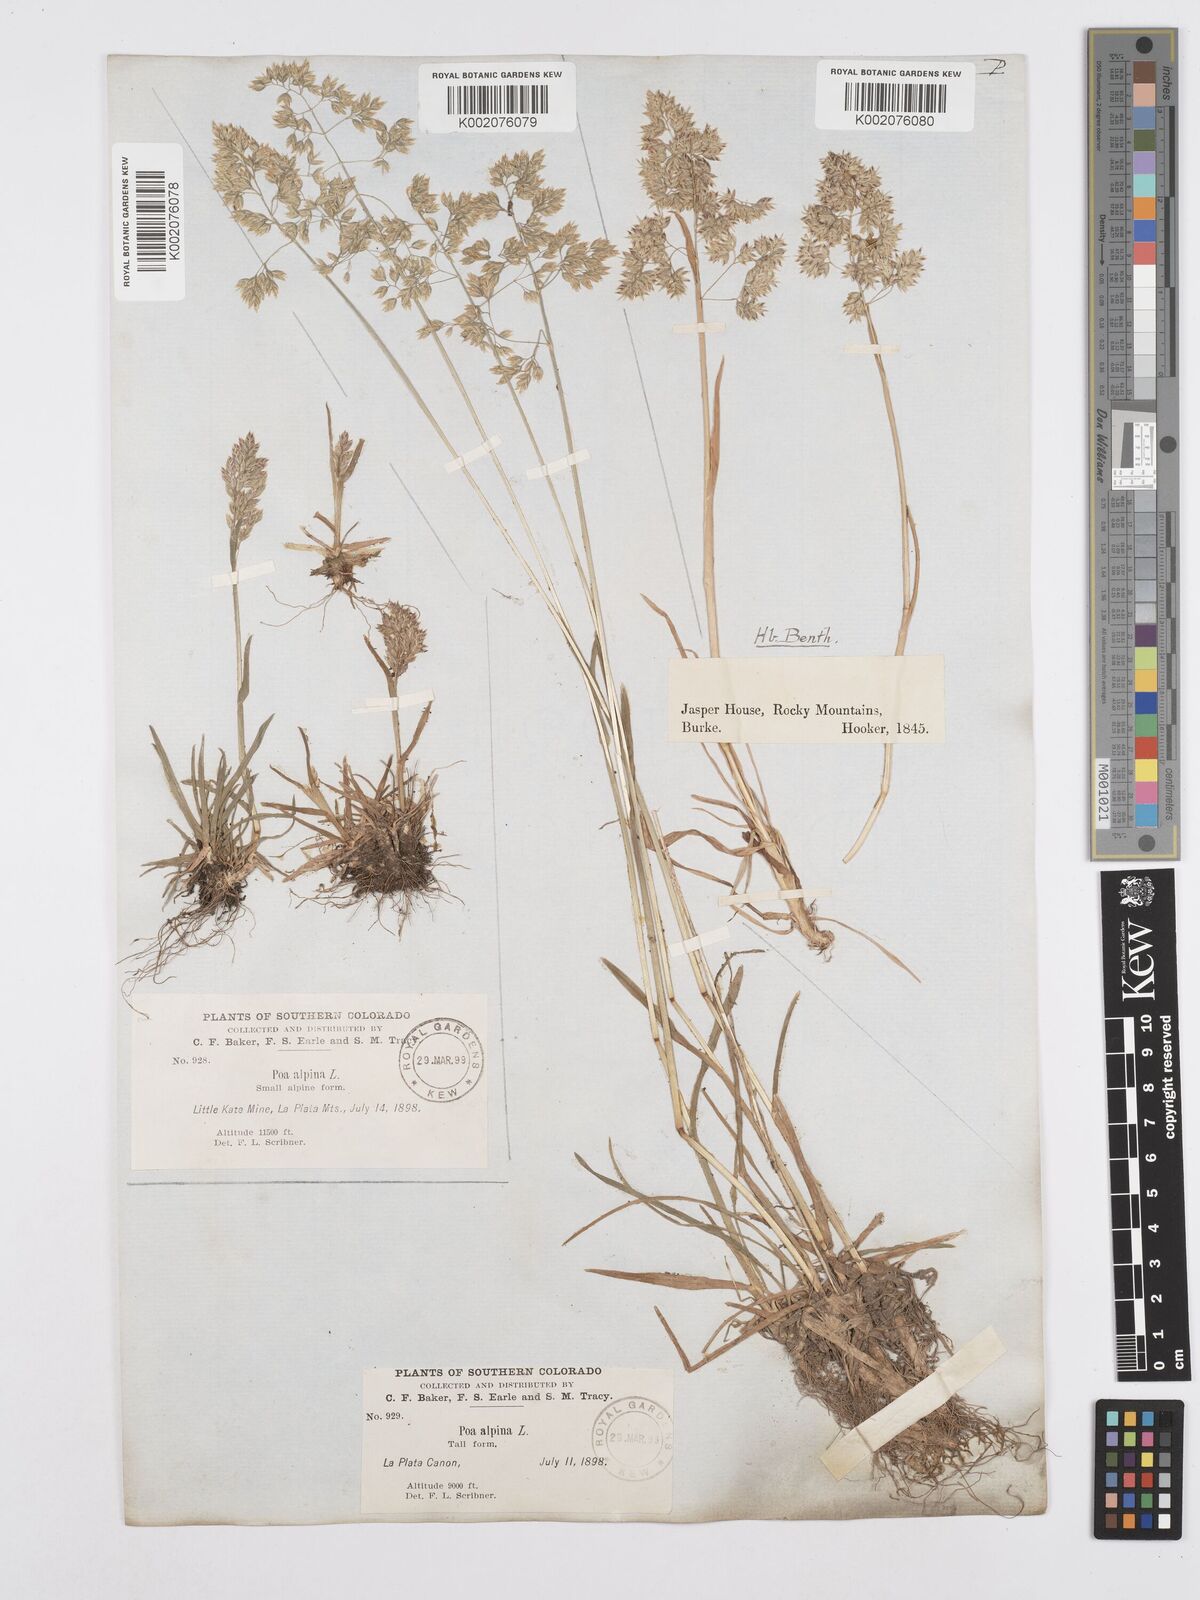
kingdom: Plantae
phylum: Tracheophyta
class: Liliopsida
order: Poales
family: Poaceae
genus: Poa
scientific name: Poa alpina
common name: Alpine bluegrass
